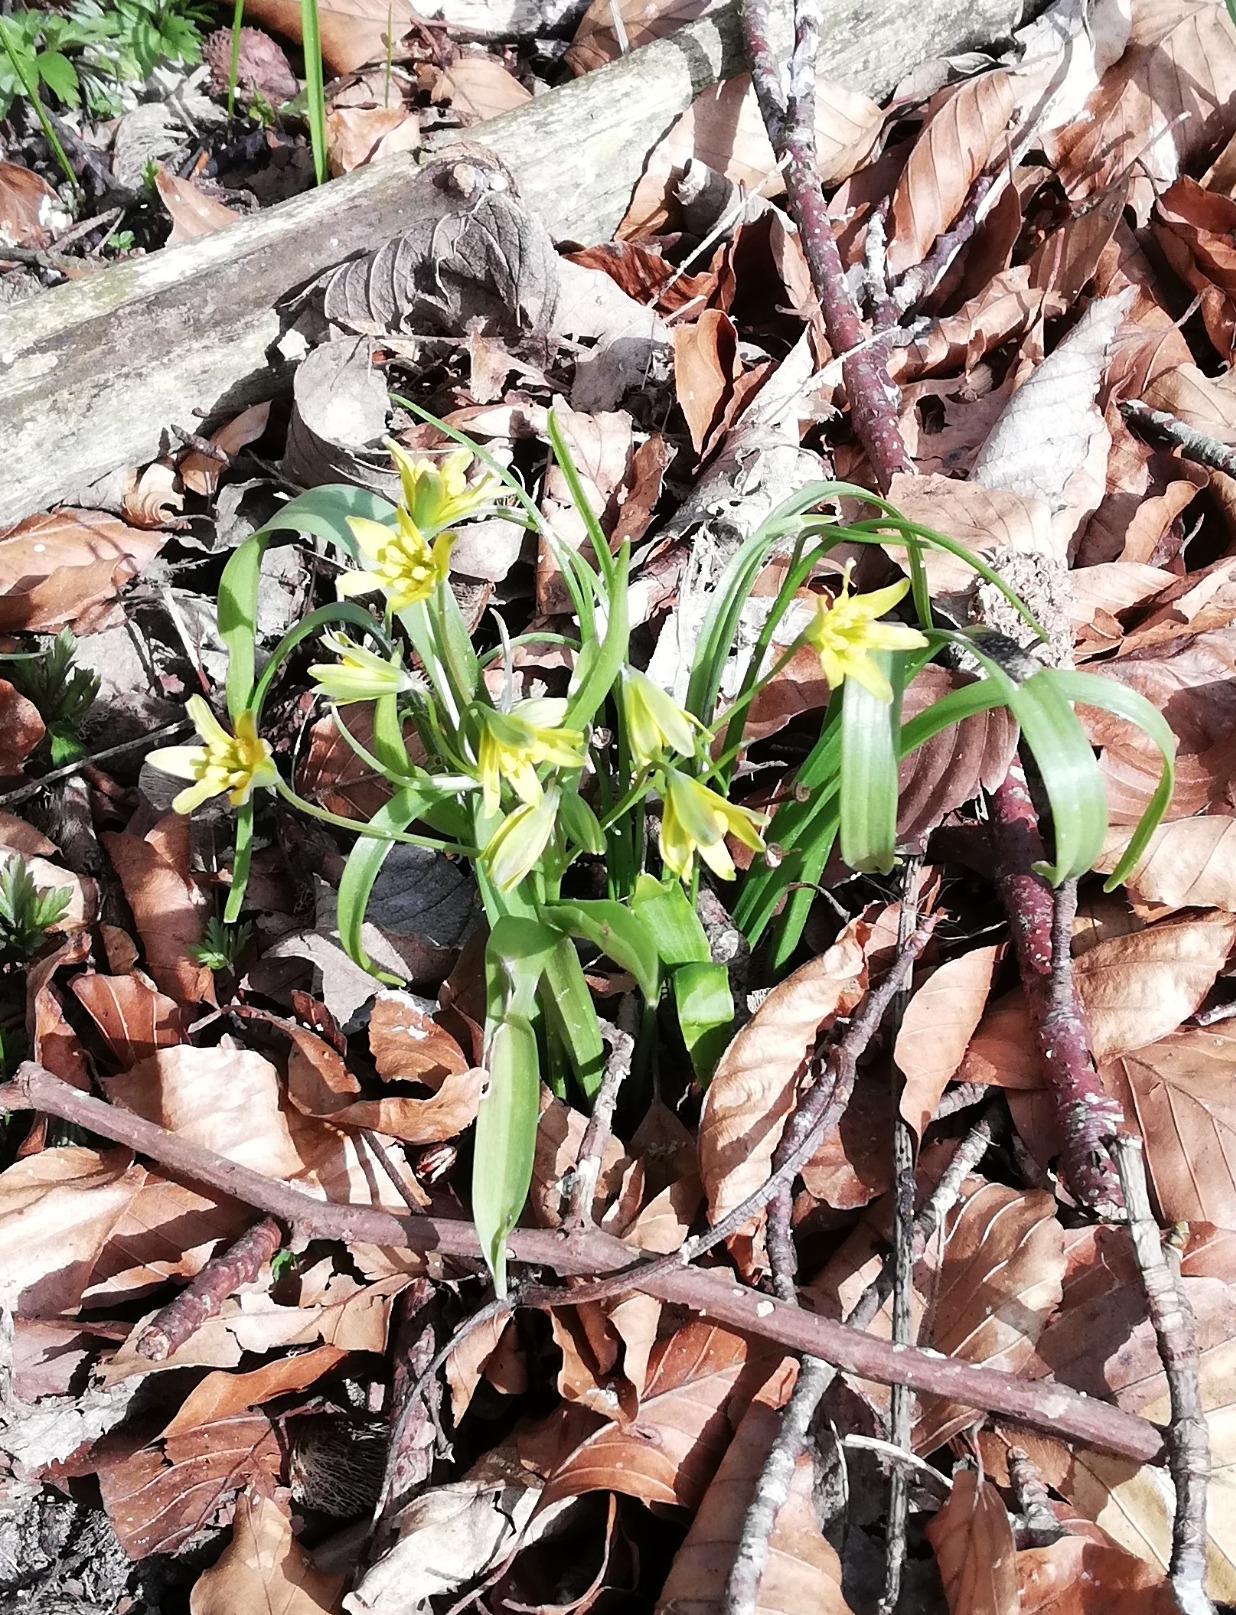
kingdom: Plantae
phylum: Tracheophyta
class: Liliopsida
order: Liliales
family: Liliaceae
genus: Gagea
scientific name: Gagea lutea
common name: Almindelig guldstjerne
